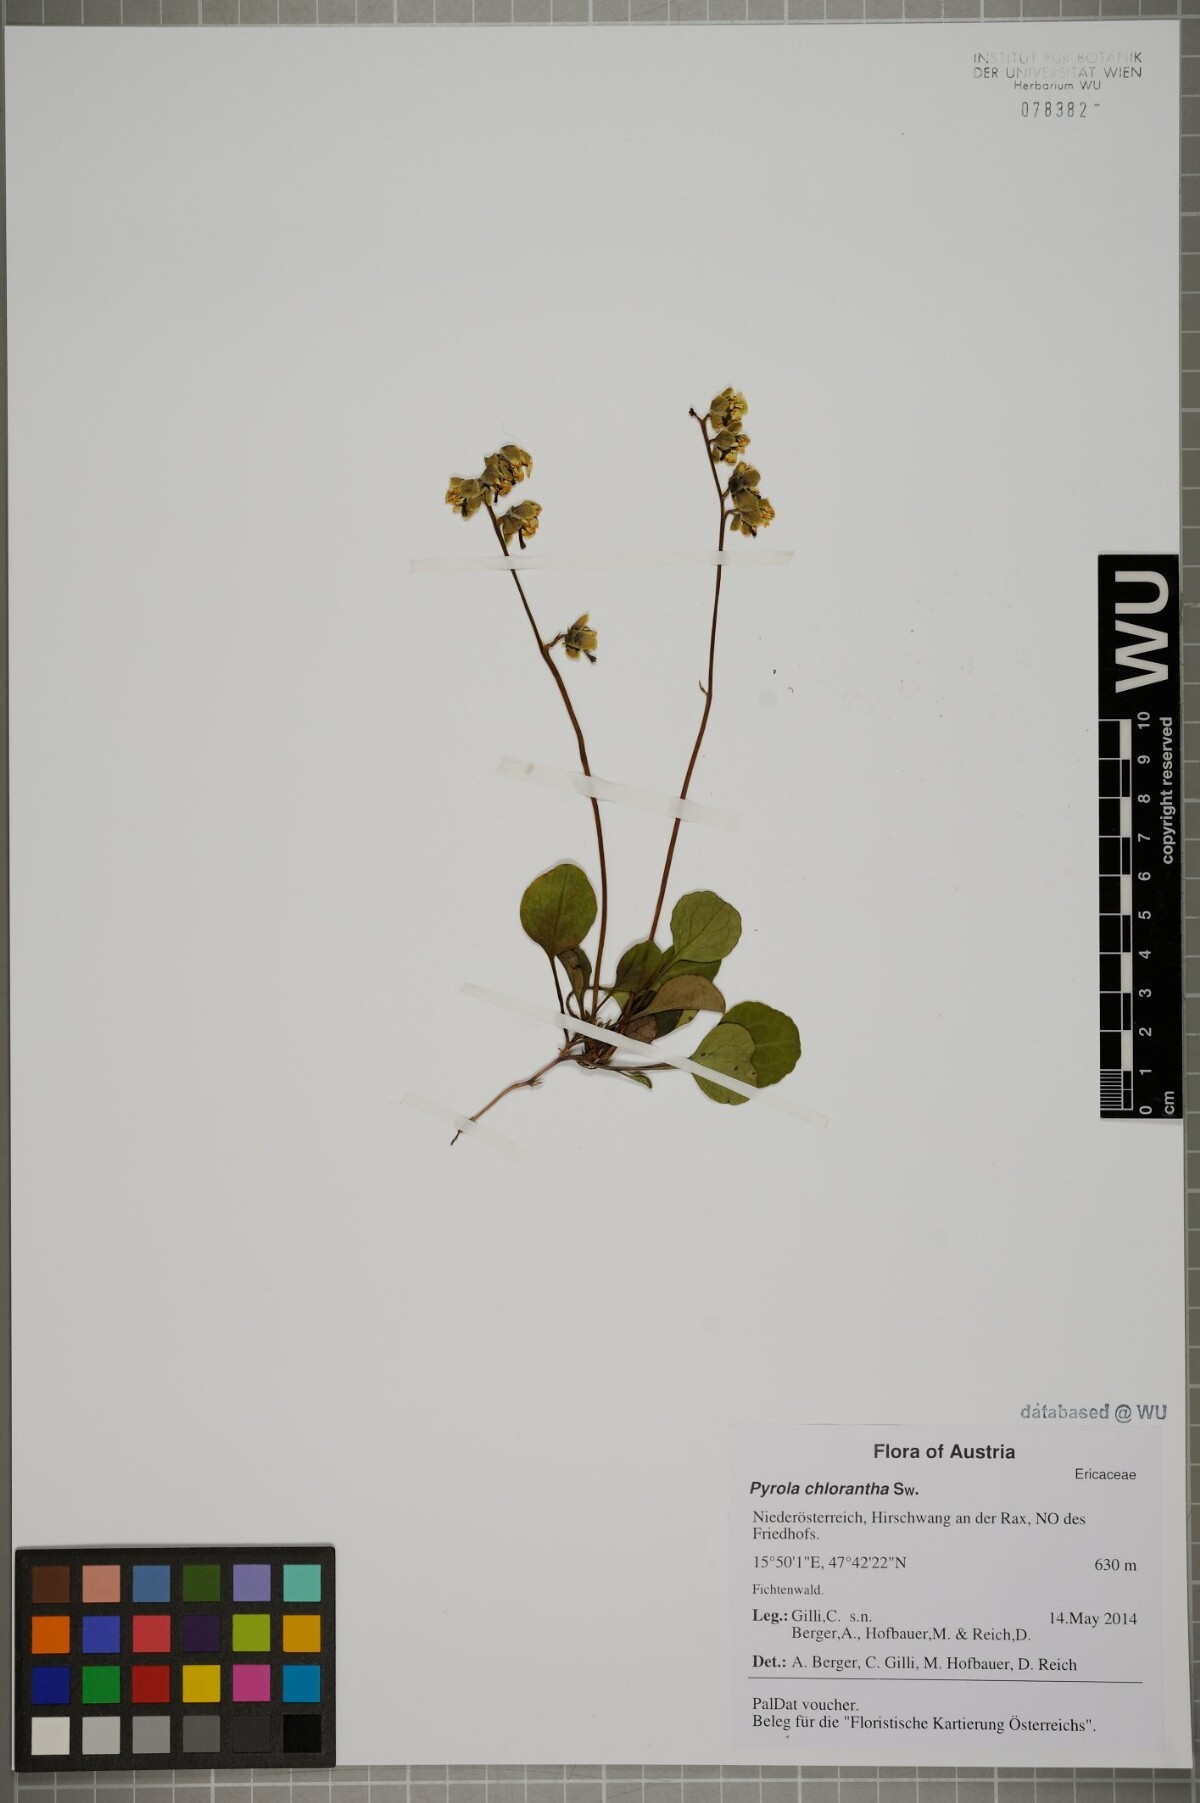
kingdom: Plantae
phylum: Tracheophyta
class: Magnoliopsida
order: Ericales
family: Ericaceae
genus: Pyrola
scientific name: Pyrola chlorantha
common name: Green wintergreen
